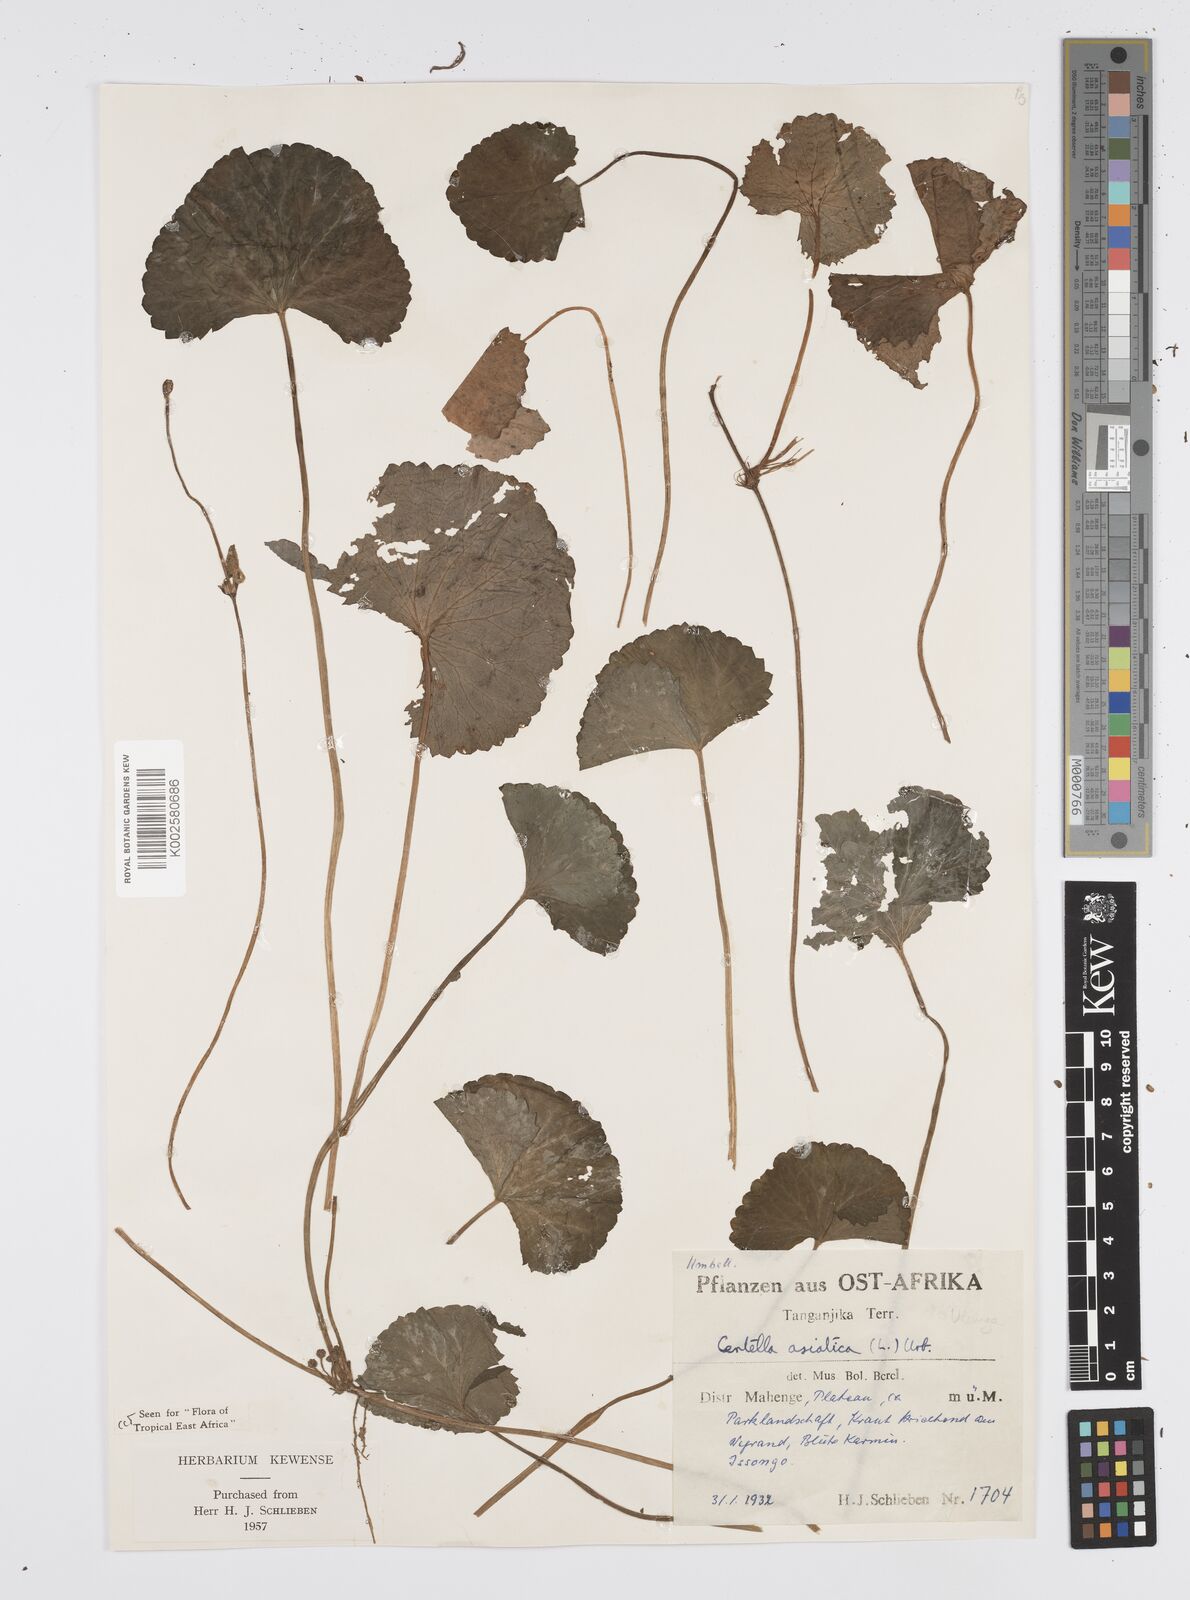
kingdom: Plantae
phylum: Tracheophyta
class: Magnoliopsida
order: Apiales
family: Apiaceae
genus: Centella
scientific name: Centella asiatica
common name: Spadeleaf
